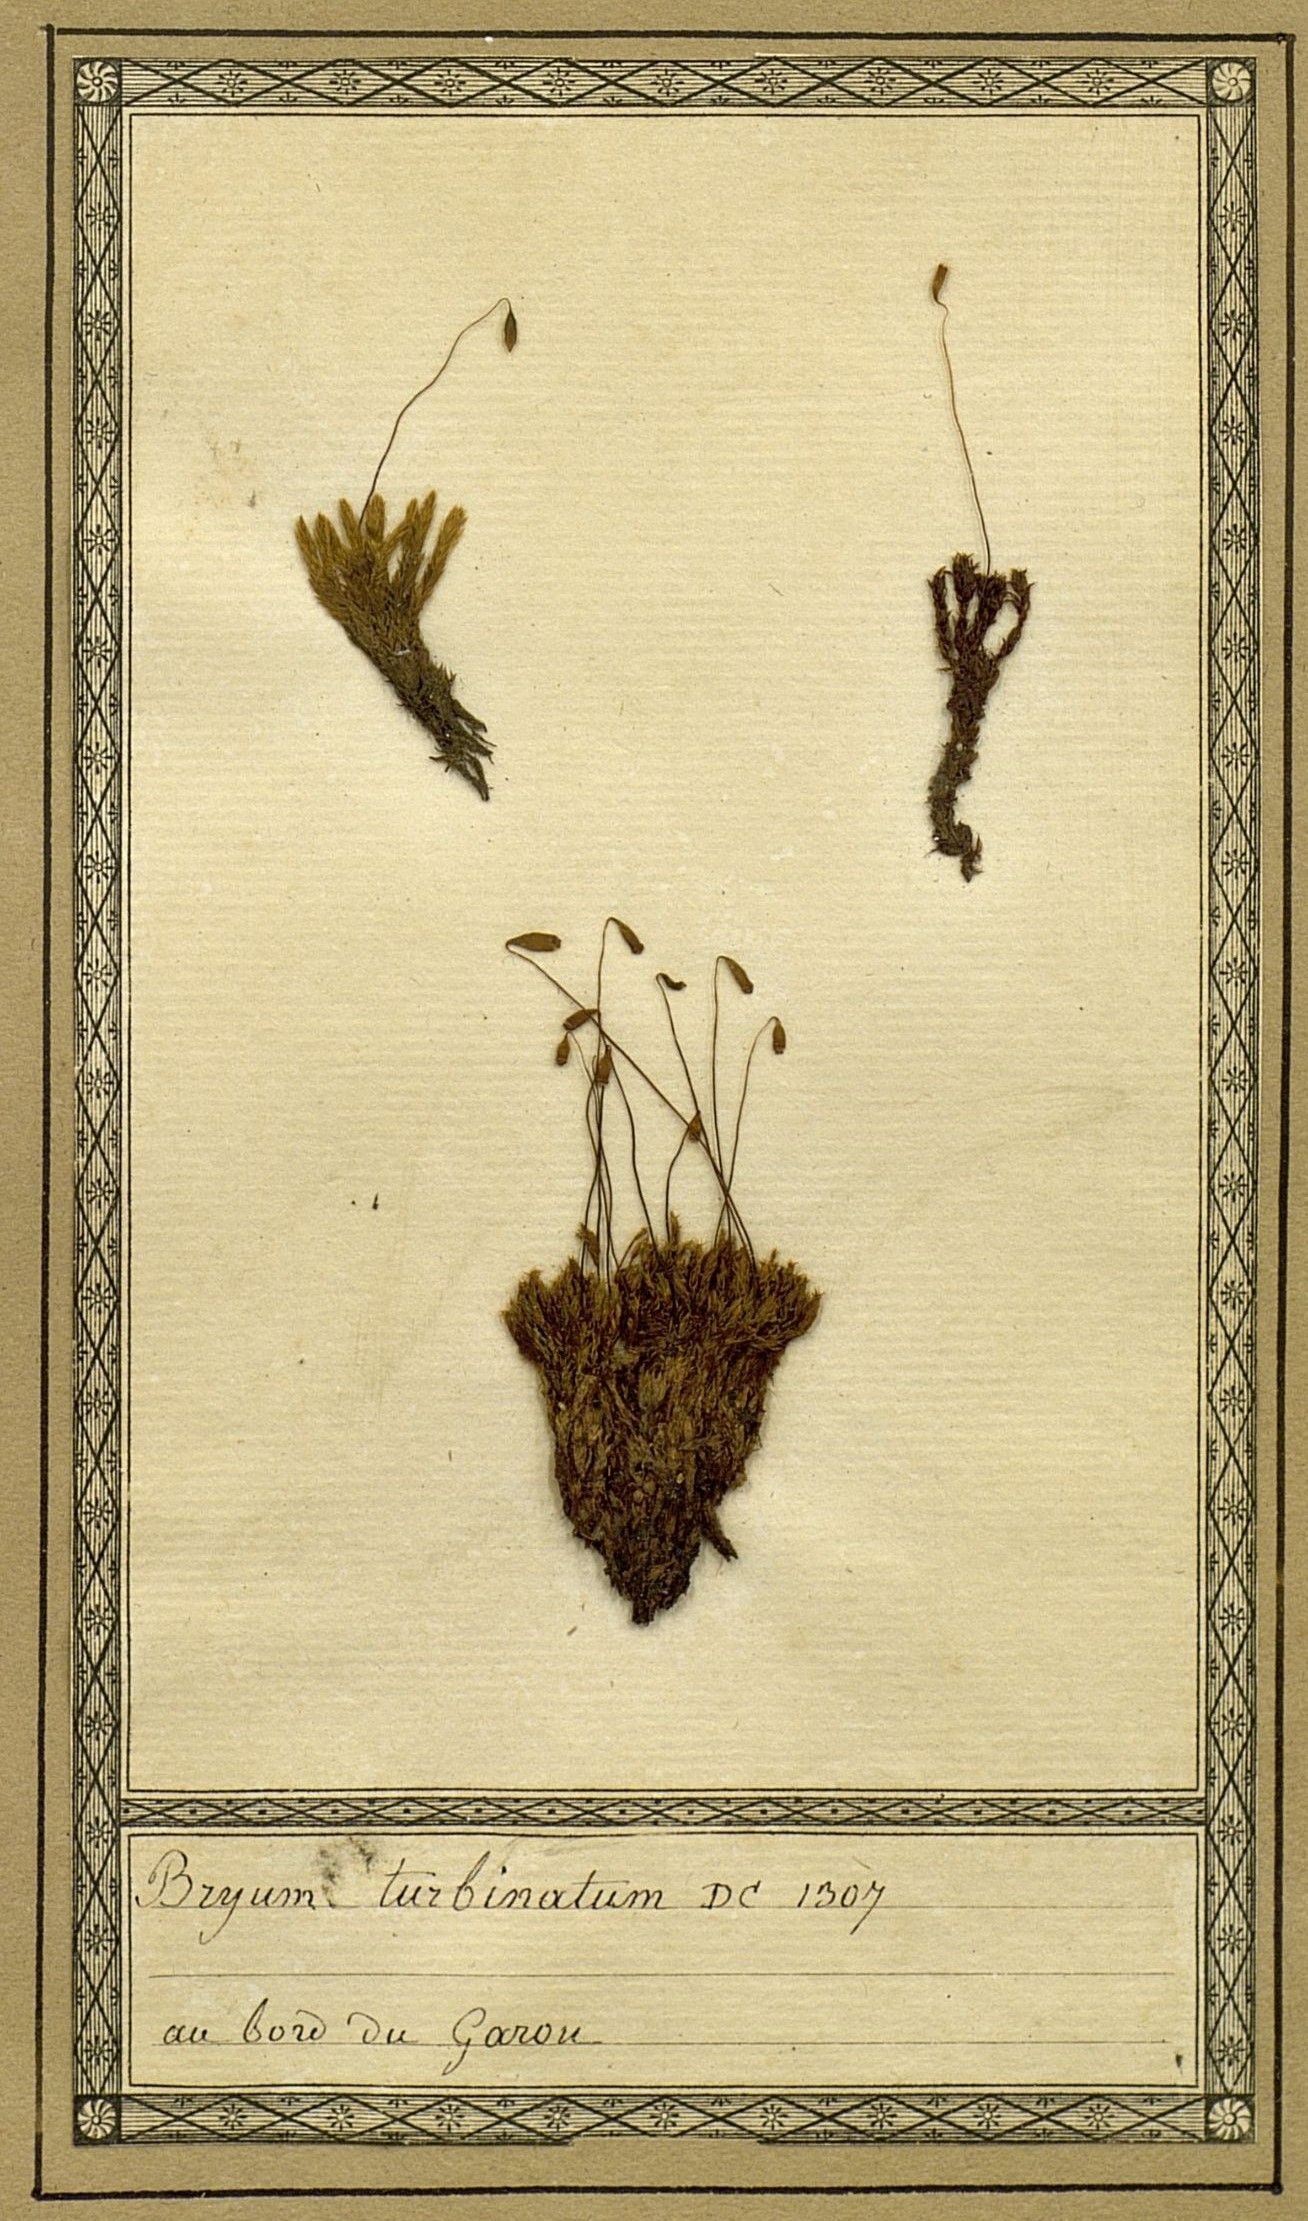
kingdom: Plantae
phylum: Bryophyta
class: Bryopsida
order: Bryales
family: Bryaceae
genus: Ptychostomum
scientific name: Ptychostomum turbinatum
